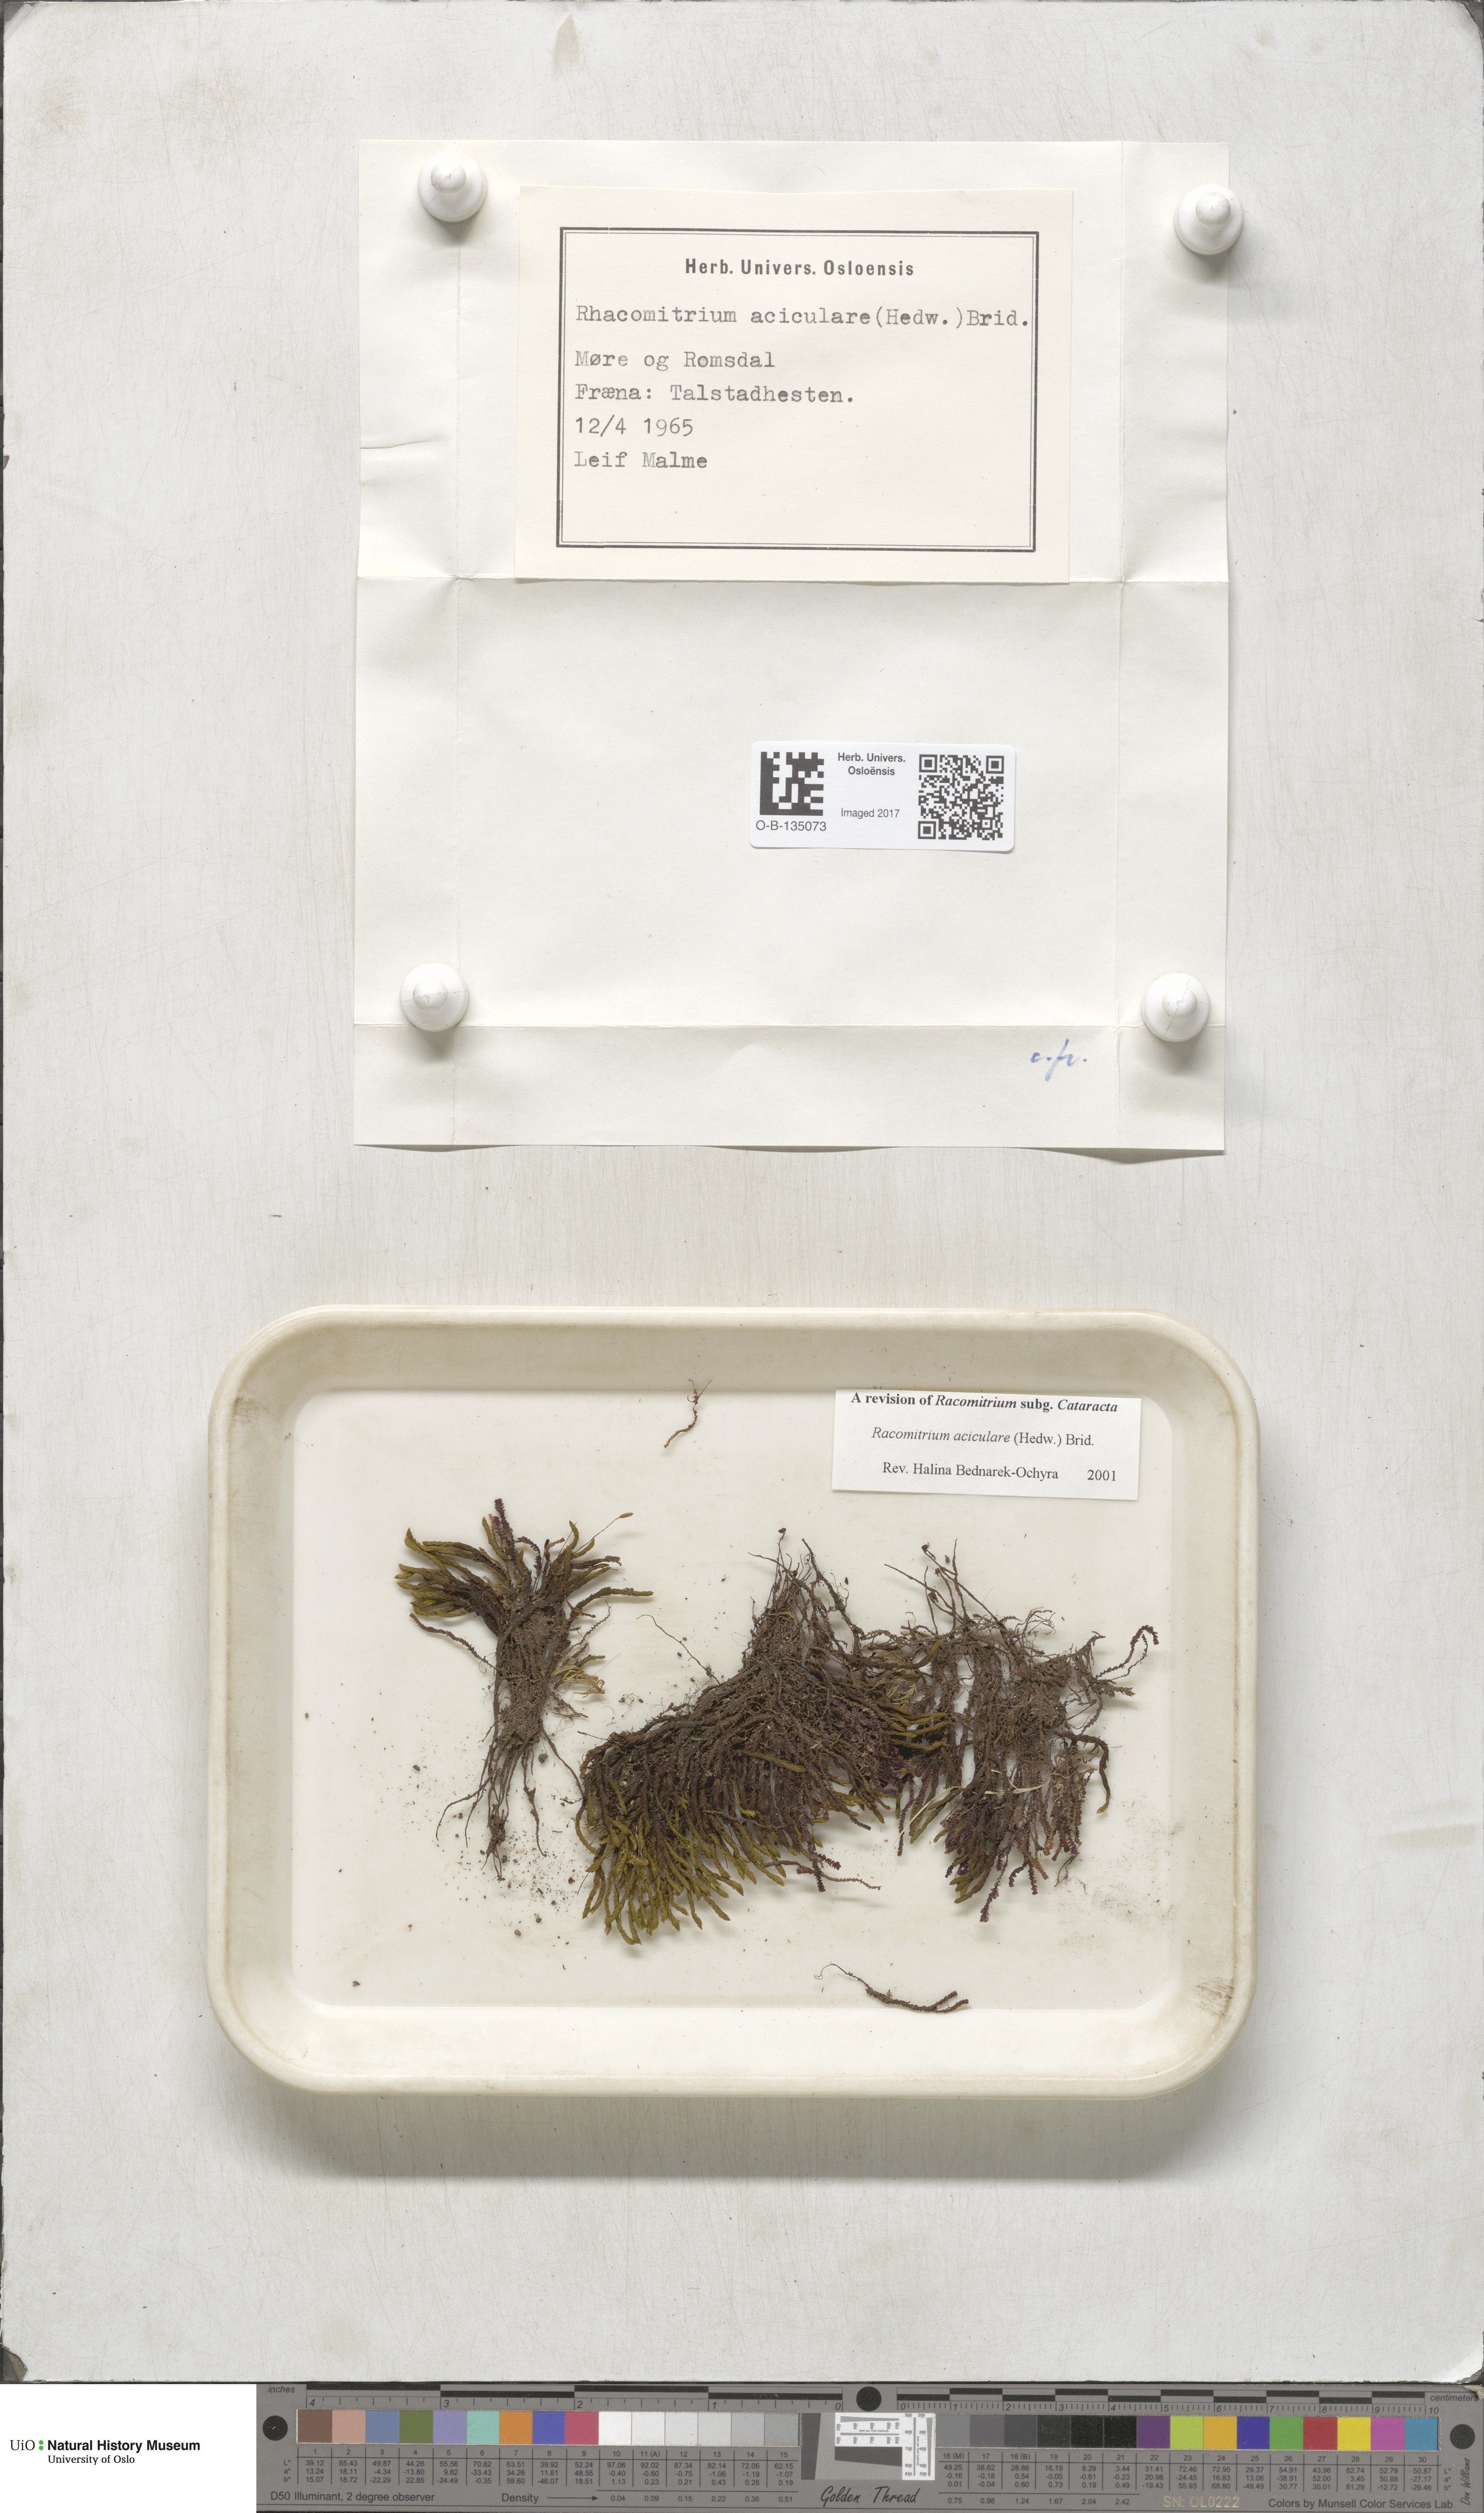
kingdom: Plantae
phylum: Bryophyta
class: Bryopsida
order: Grimmiales
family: Grimmiaceae
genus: Codriophorus
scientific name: Codriophorus acicularis
